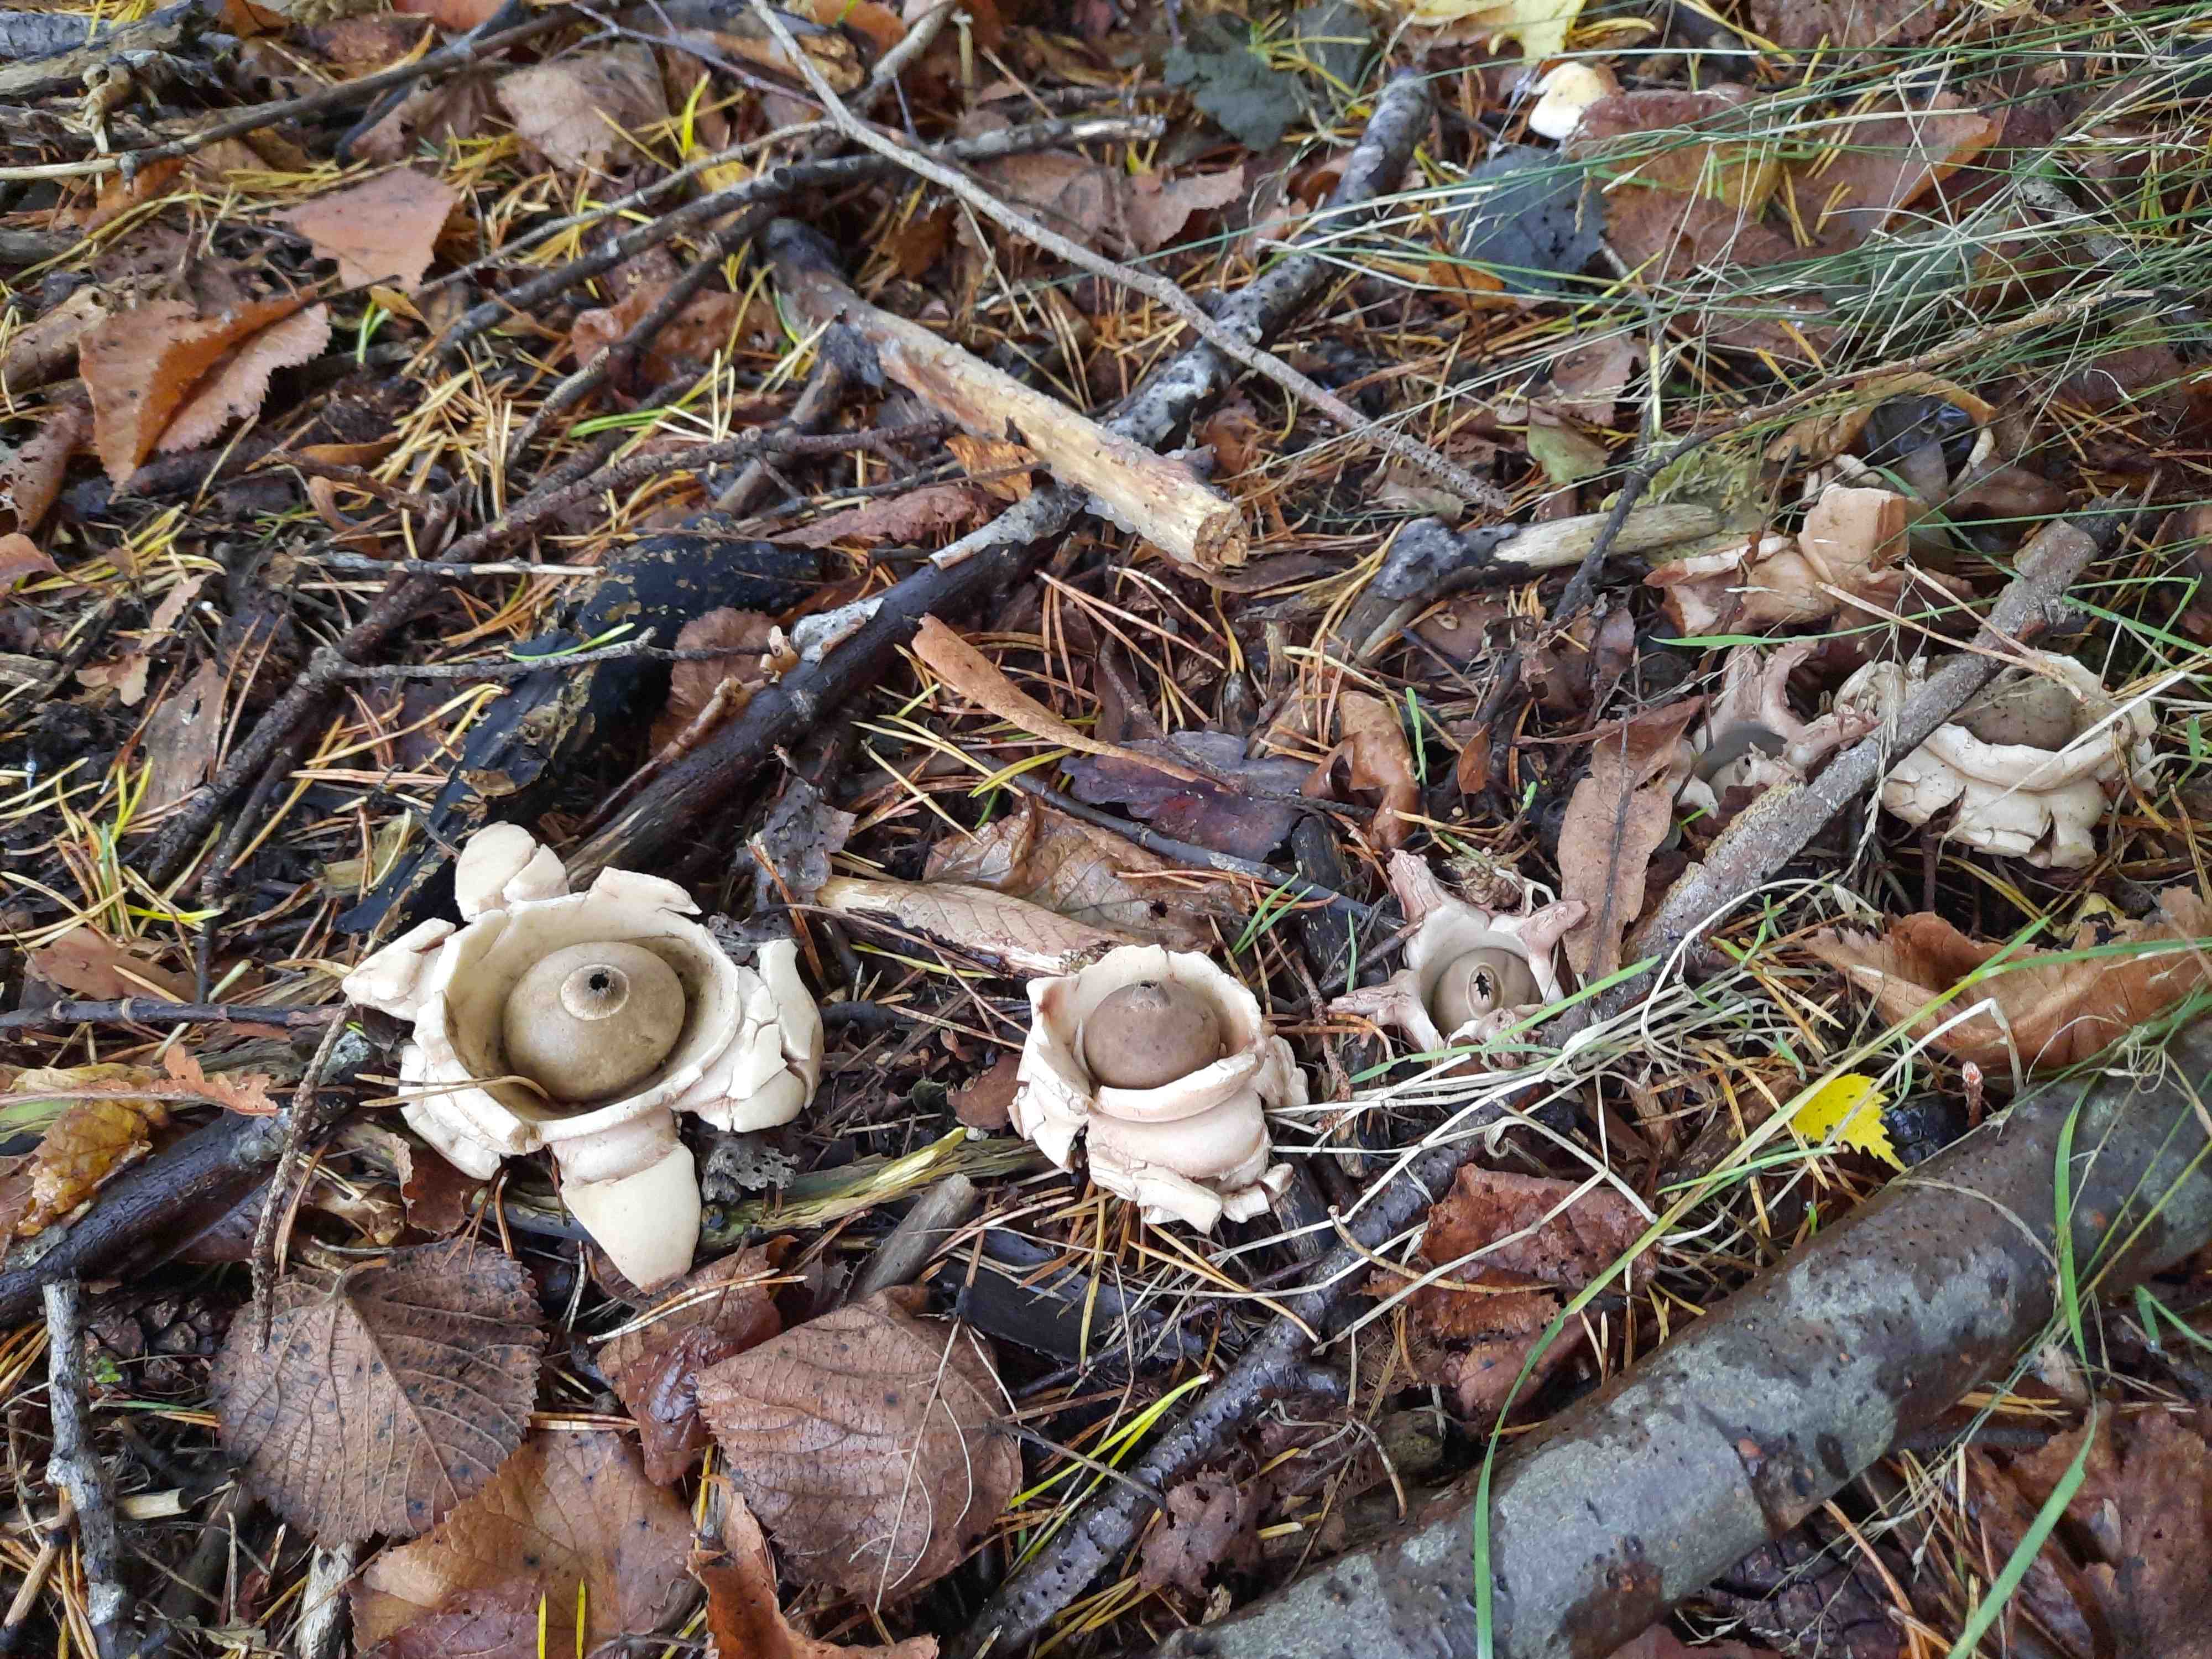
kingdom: Fungi
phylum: Basidiomycota
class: Agaricomycetes
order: Geastrales
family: Geastraceae
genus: Geastrum
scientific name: Geastrum michelianum
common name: kødet stjernebold
